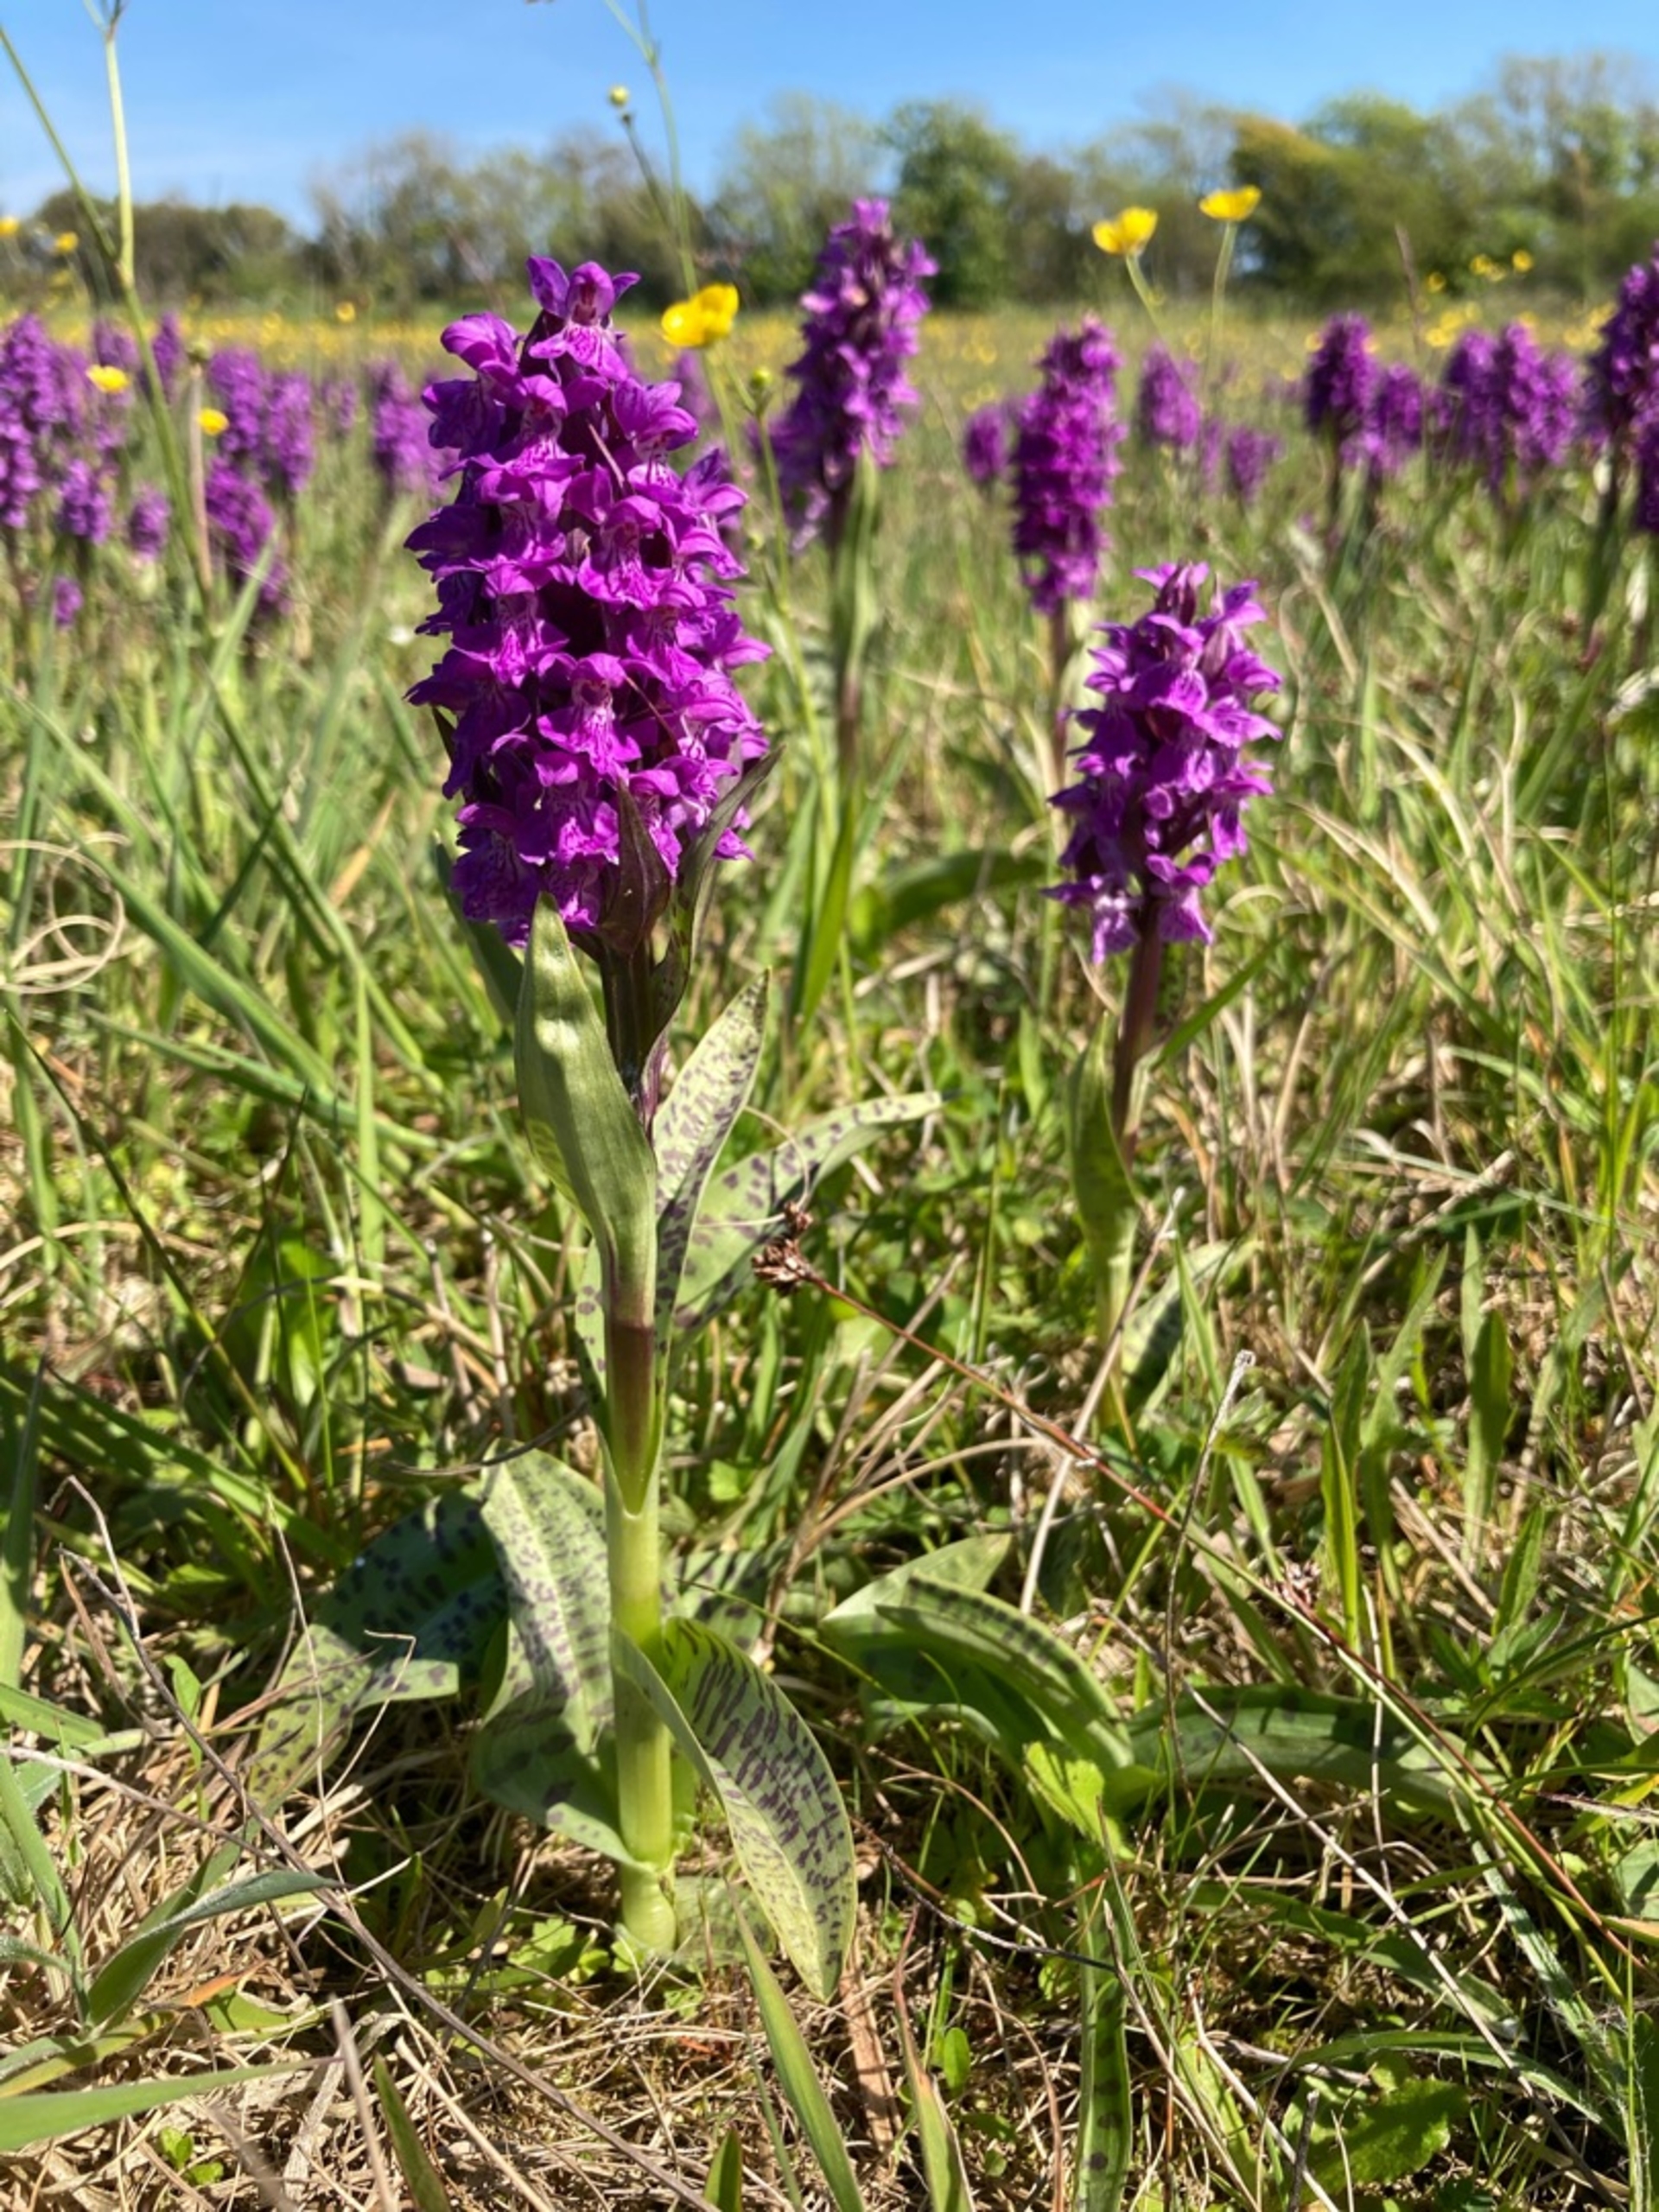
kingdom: Plantae
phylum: Tracheophyta
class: Liliopsida
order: Asparagales
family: Orchidaceae
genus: Dactylorhiza
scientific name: Dactylorhiza majalis
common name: Maj-gøgeurt
